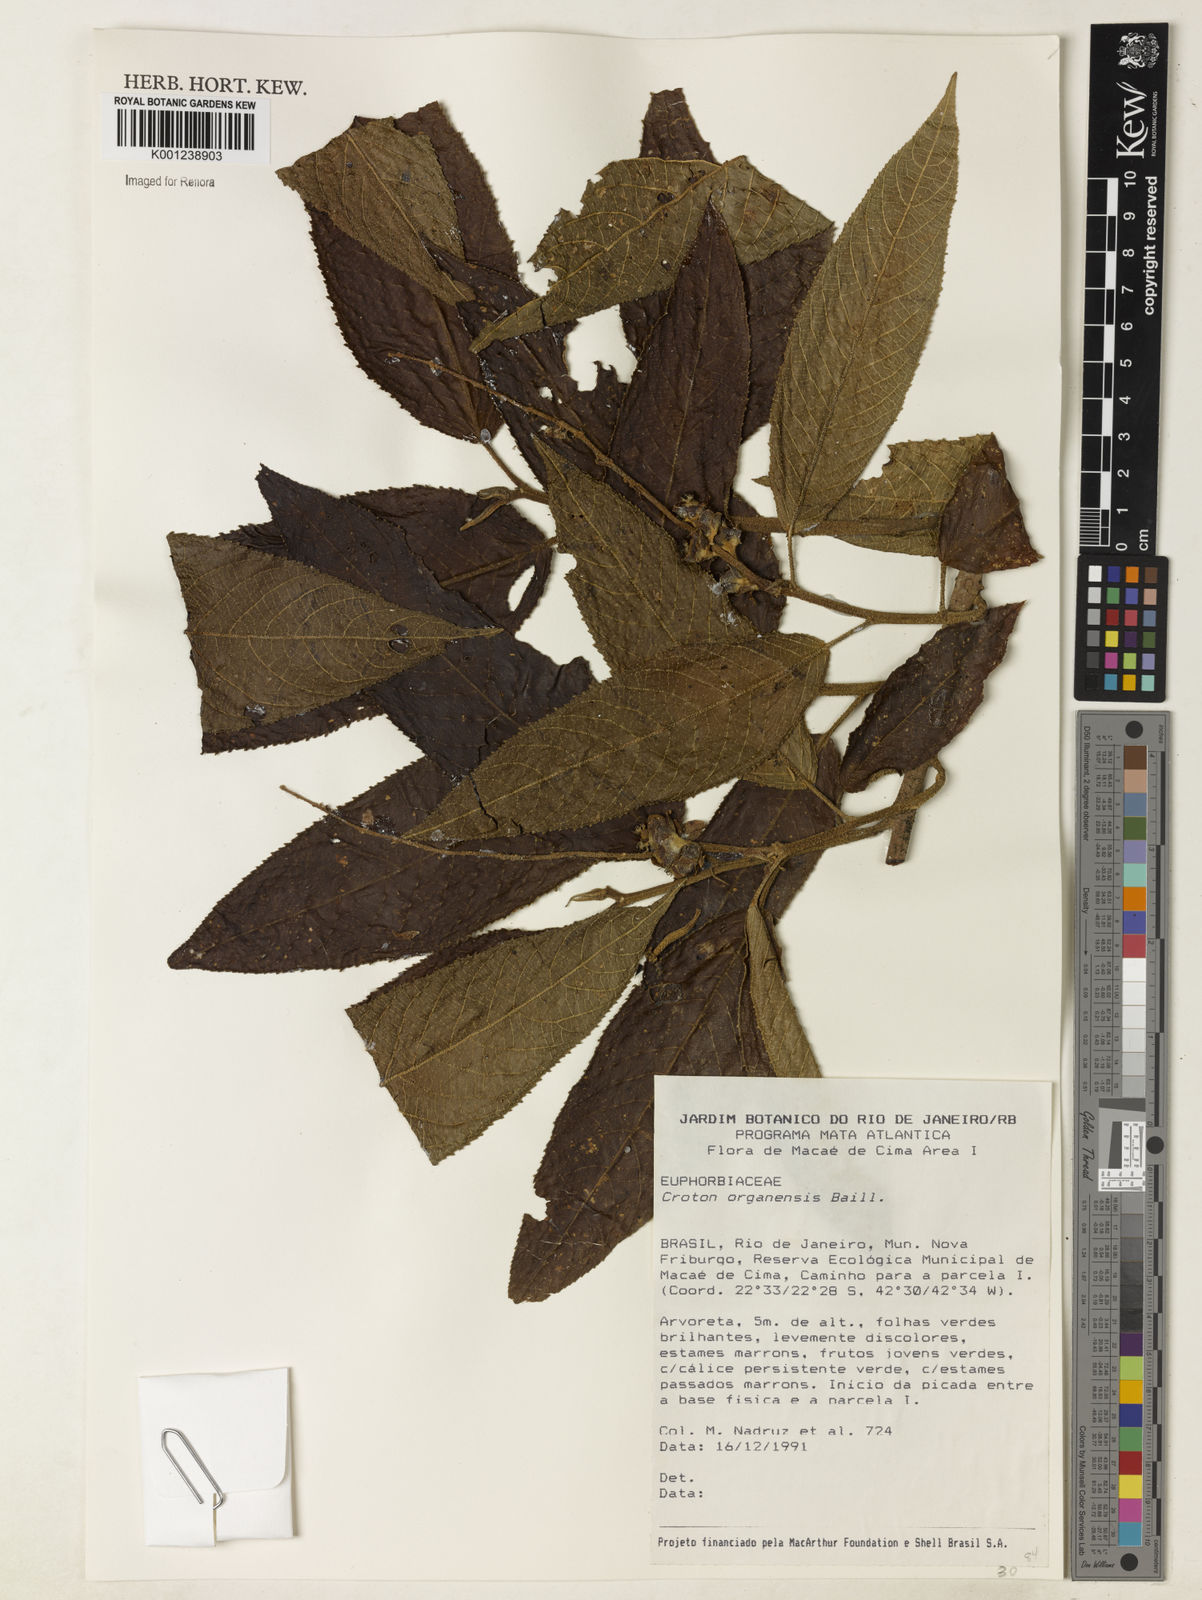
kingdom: Plantae
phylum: Tracheophyta
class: Magnoliopsida
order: Malpighiales
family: Euphorbiaceae
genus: Croton
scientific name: Croton organensis
